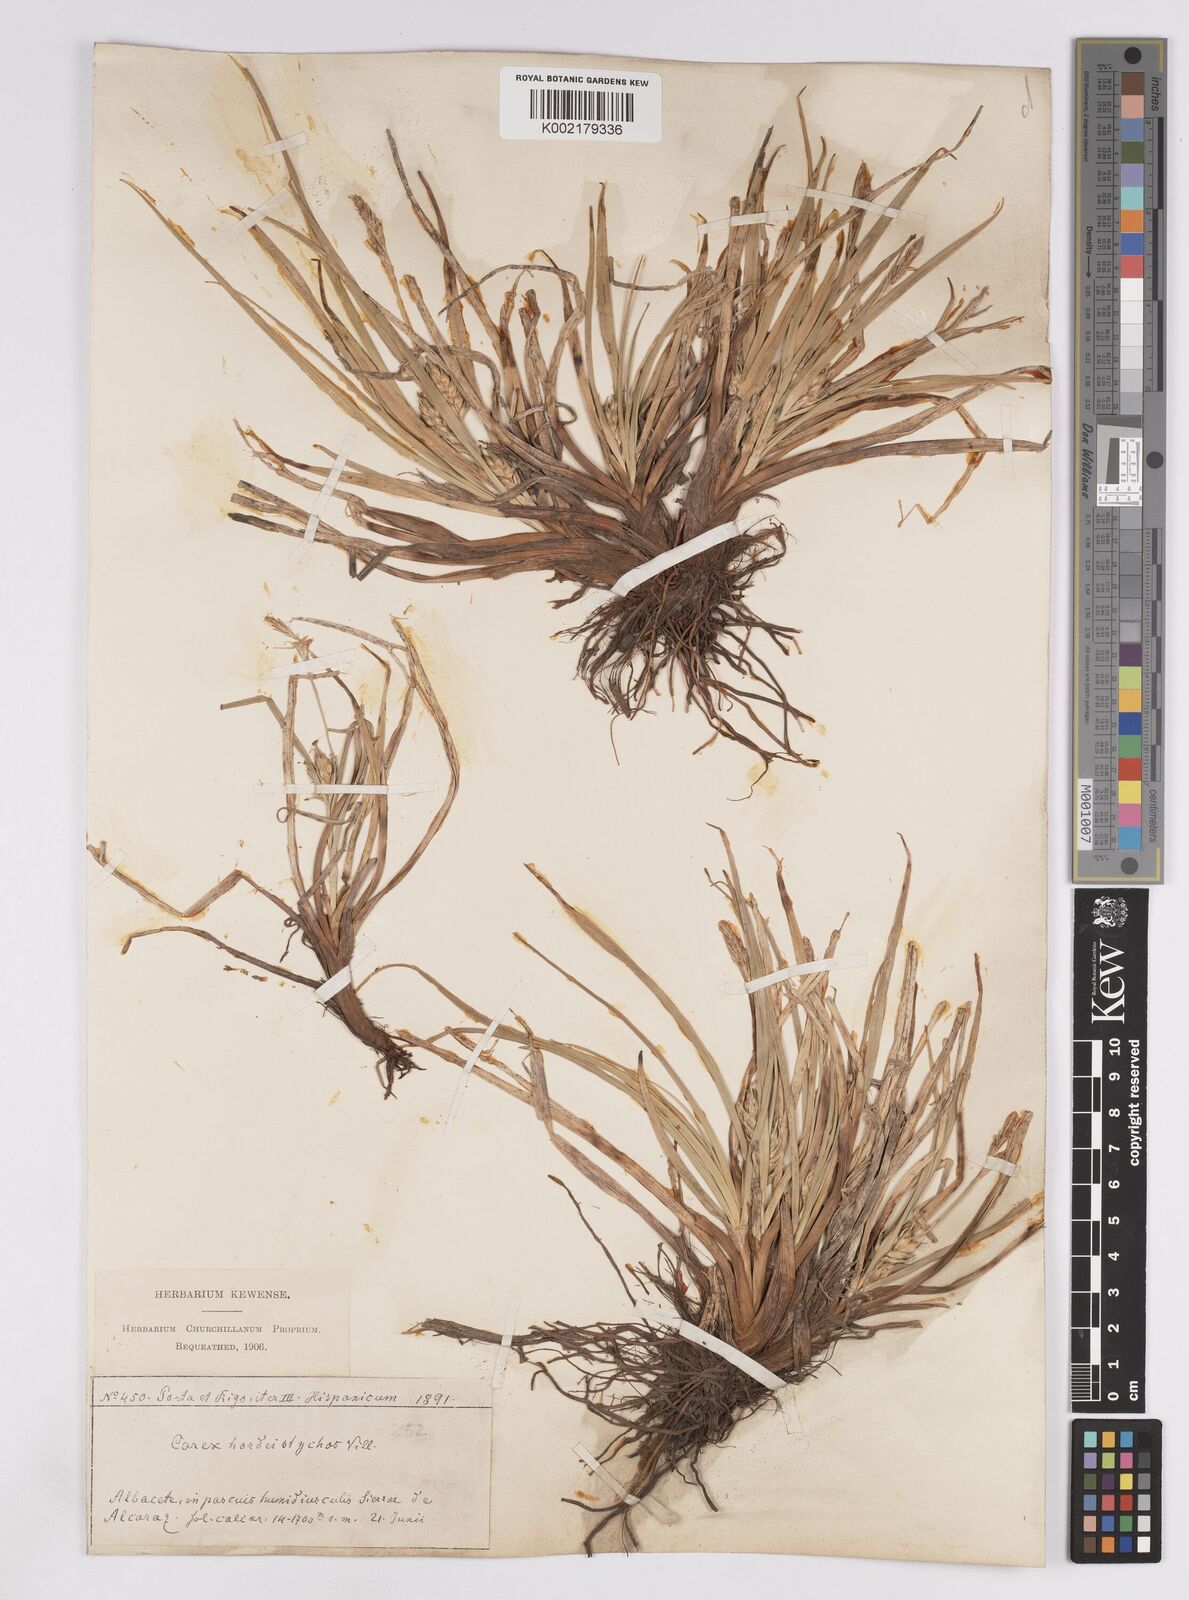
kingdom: Plantae
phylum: Tracheophyta
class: Liliopsida
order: Poales
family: Cyperaceae
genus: Carex
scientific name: Carex hordeistichos
